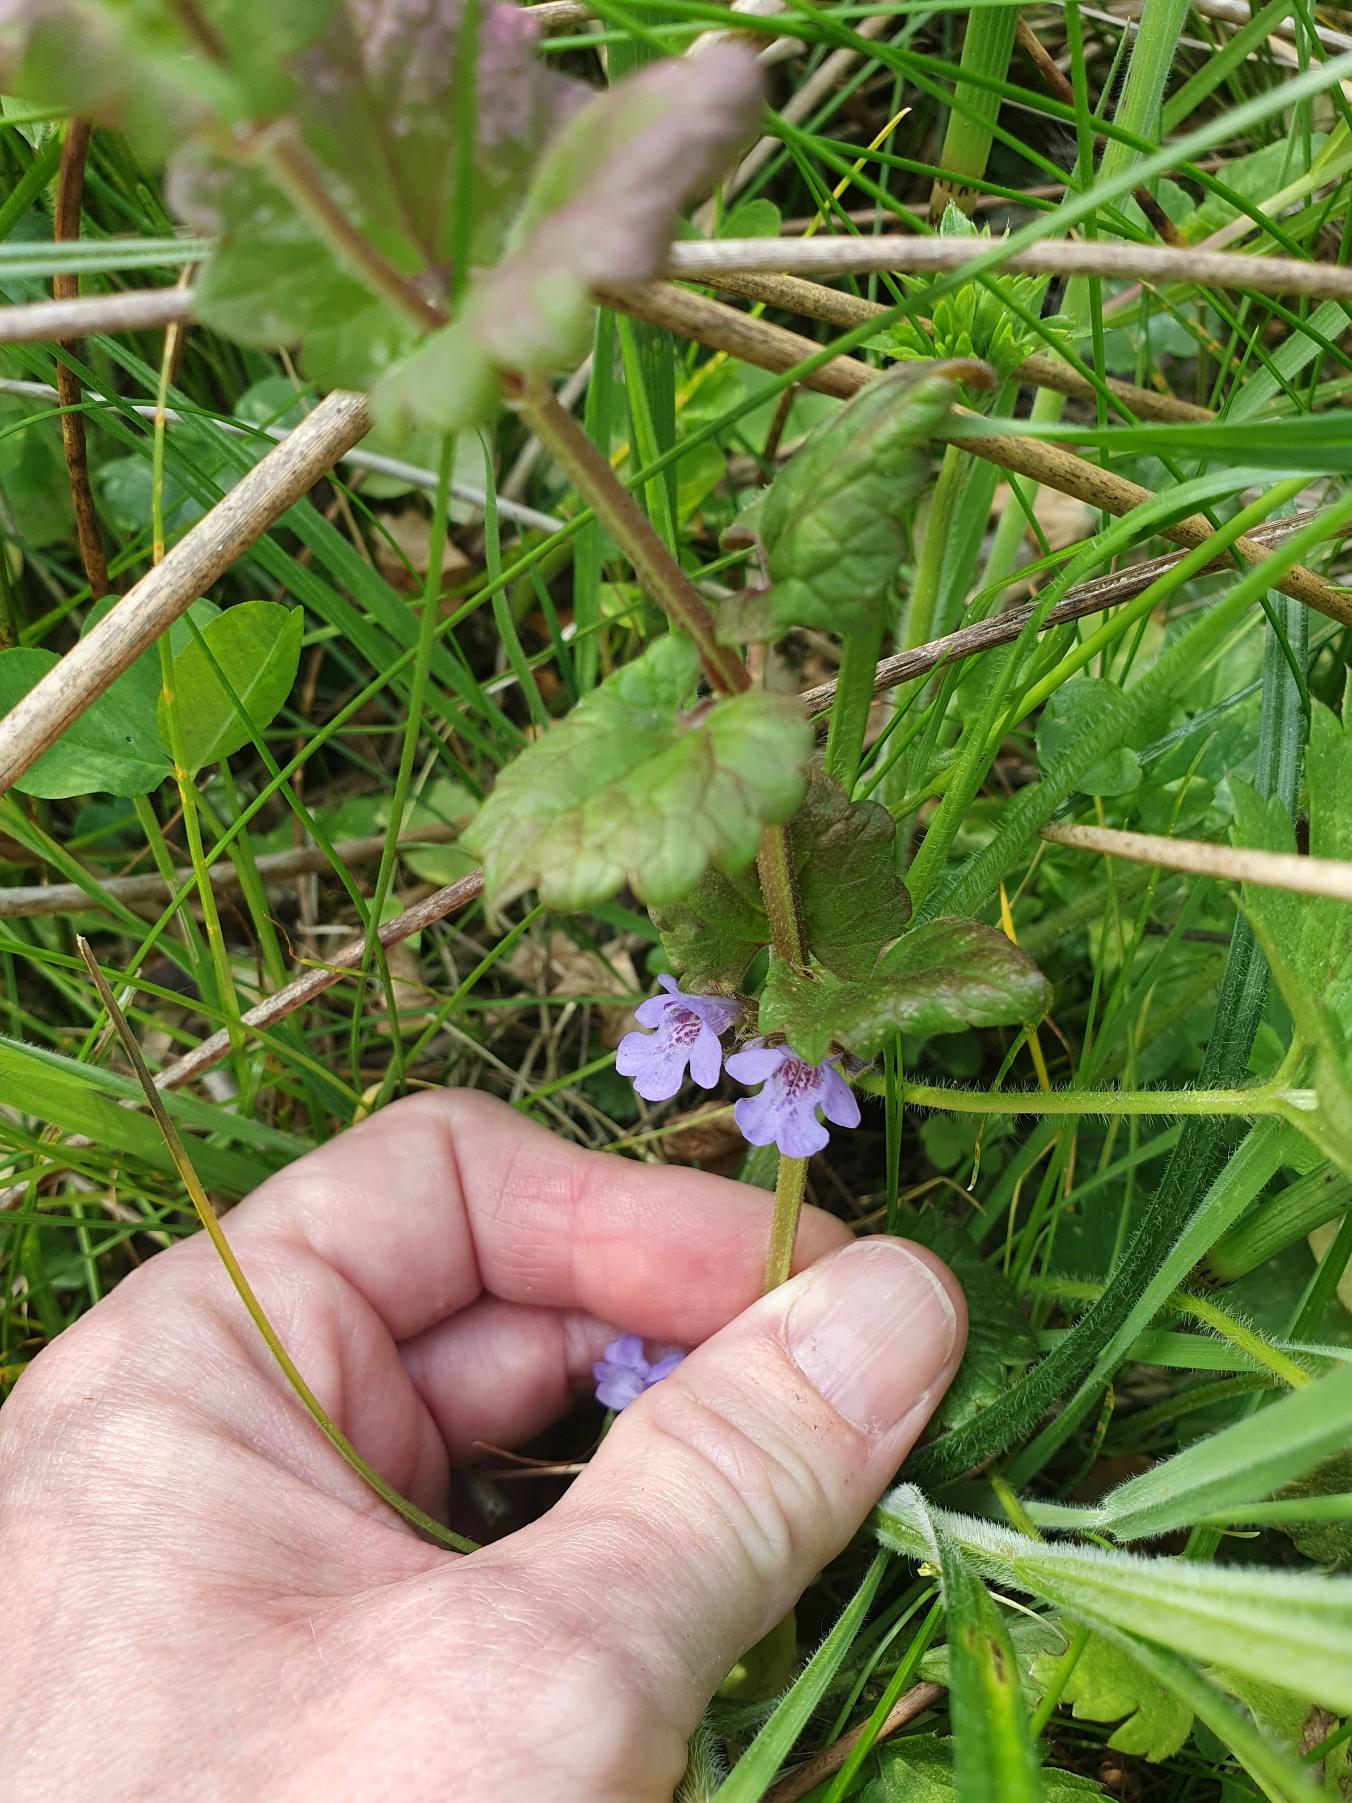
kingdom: Plantae
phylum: Tracheophyta
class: Magnoliopsida
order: Lamiales
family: Lamiaceae
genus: Glechoma
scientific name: Glechoma hederacea
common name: Korsknap
